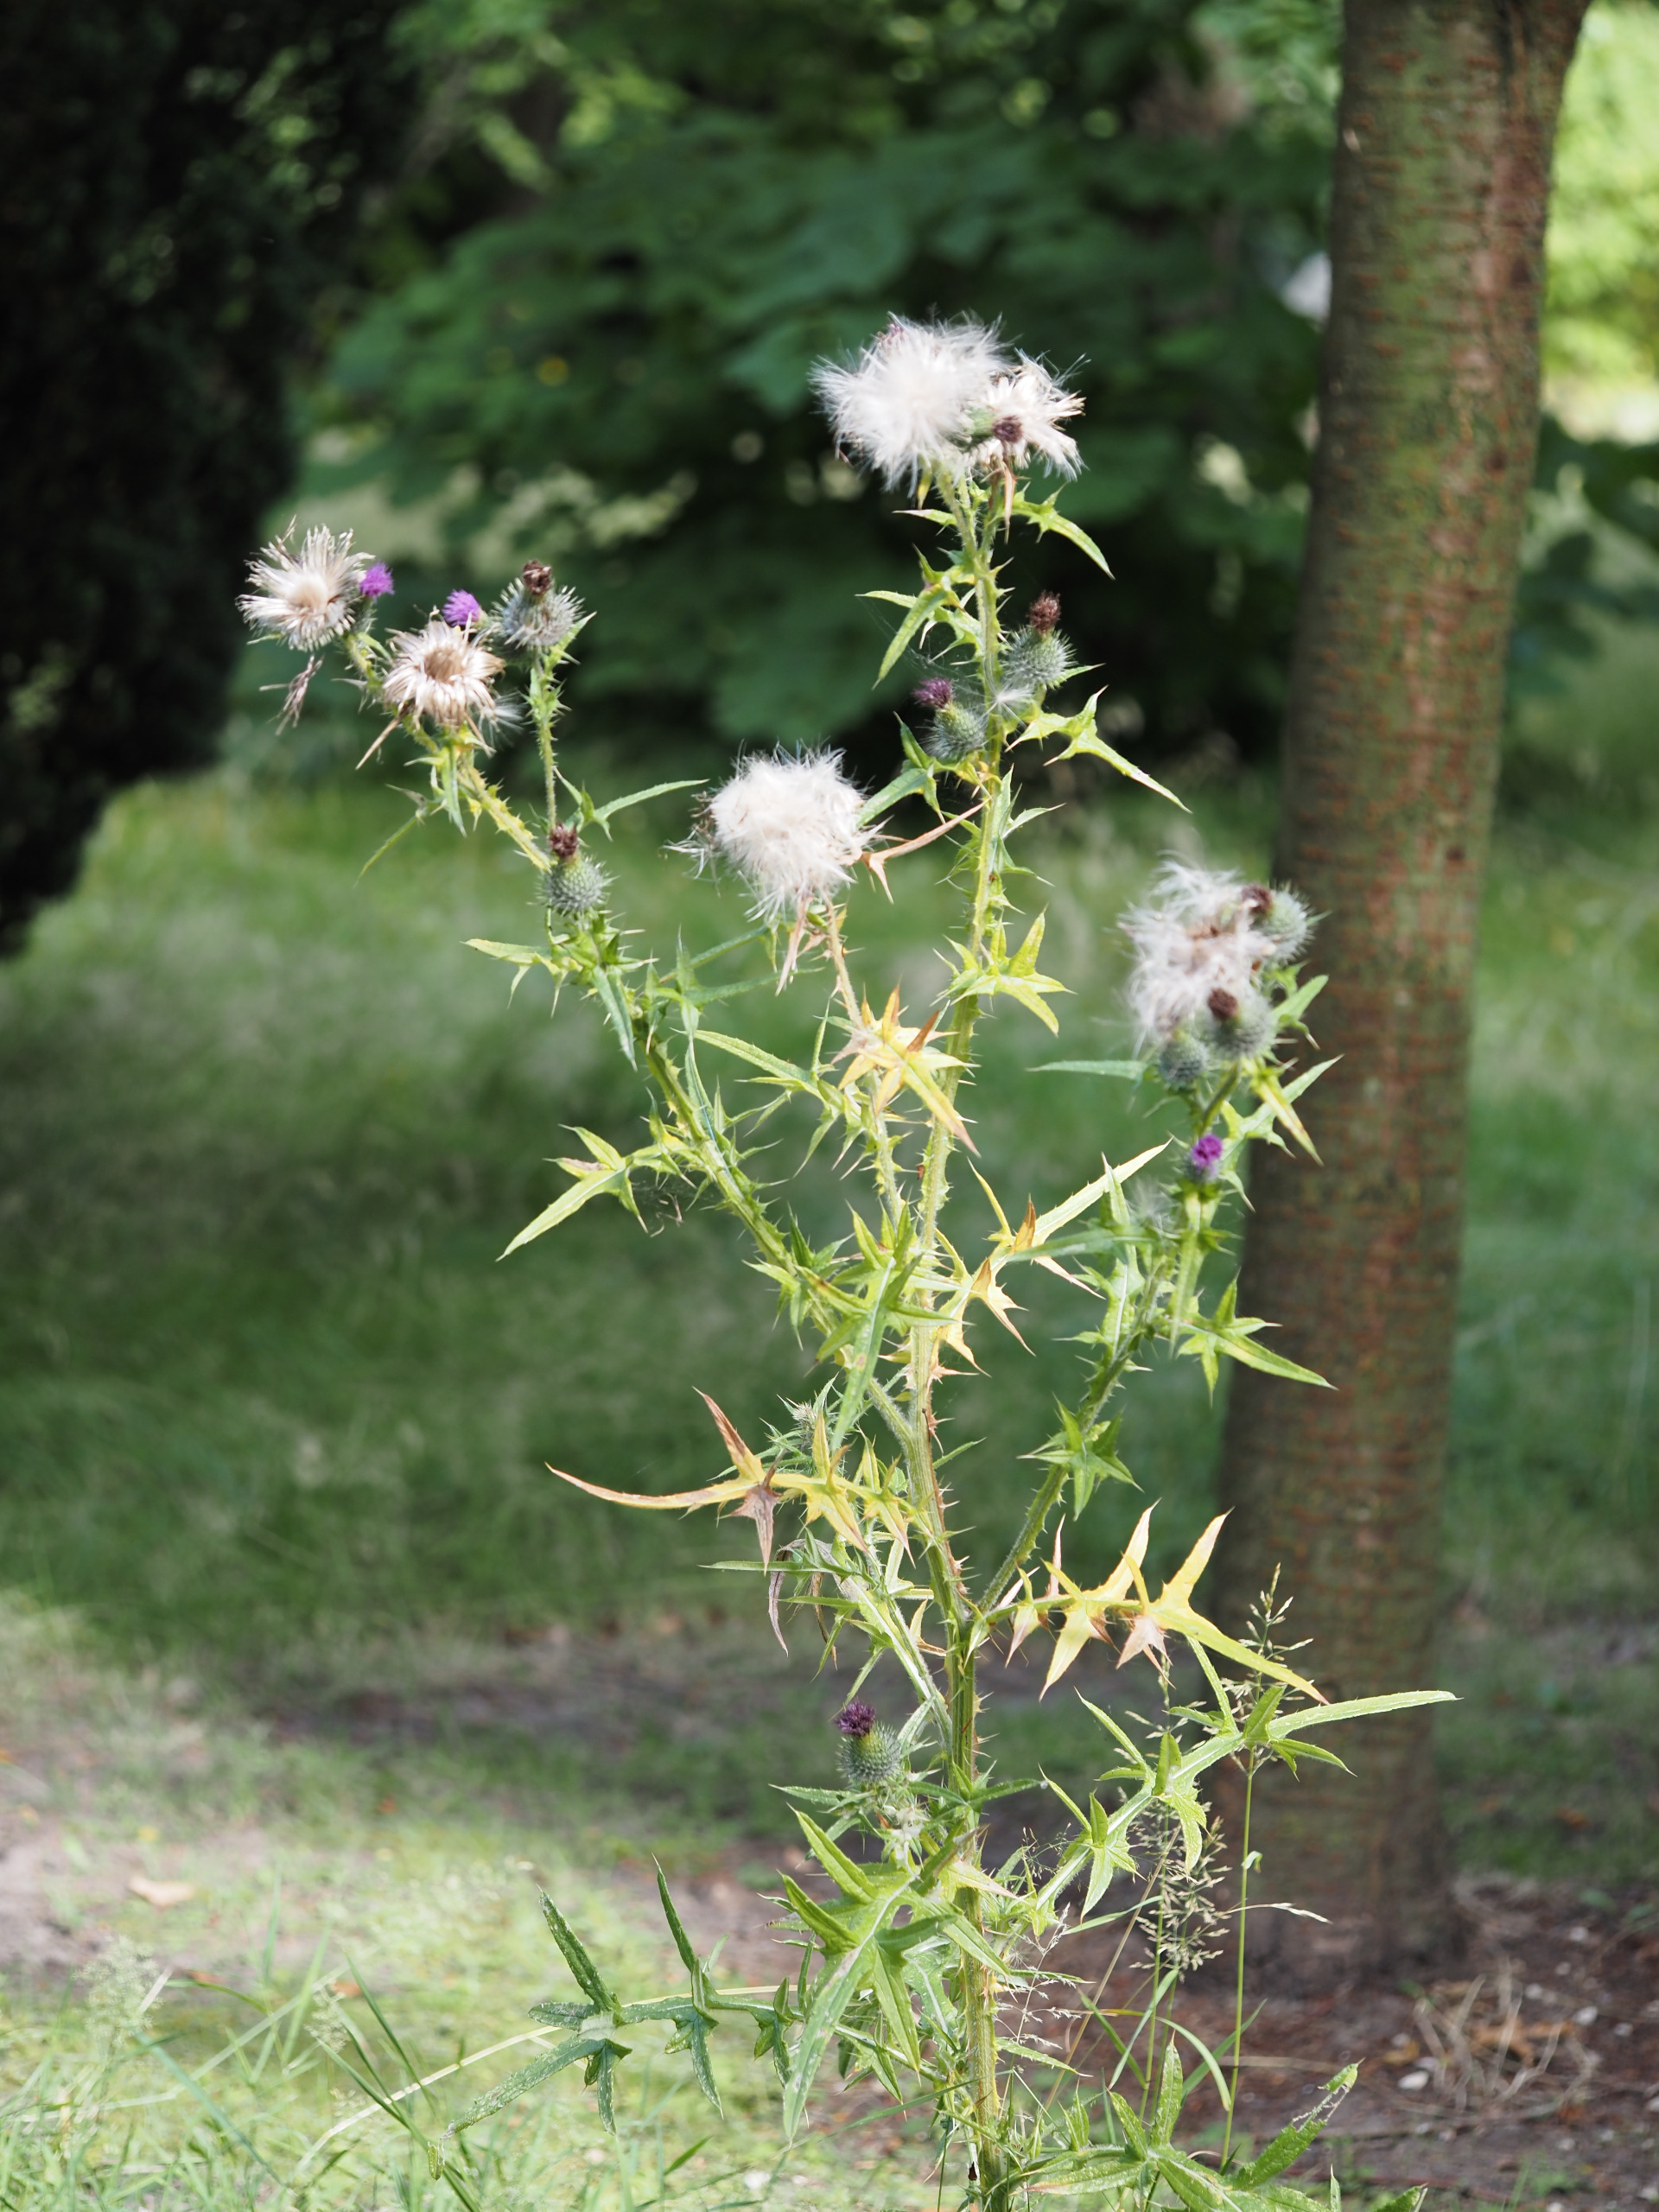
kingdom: Plantae
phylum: Tracheophyta
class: Magnoliopsida
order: Asterales
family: Asteraceae
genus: Cirsium
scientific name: Cirsium vulgare
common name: Horse-tidsel
